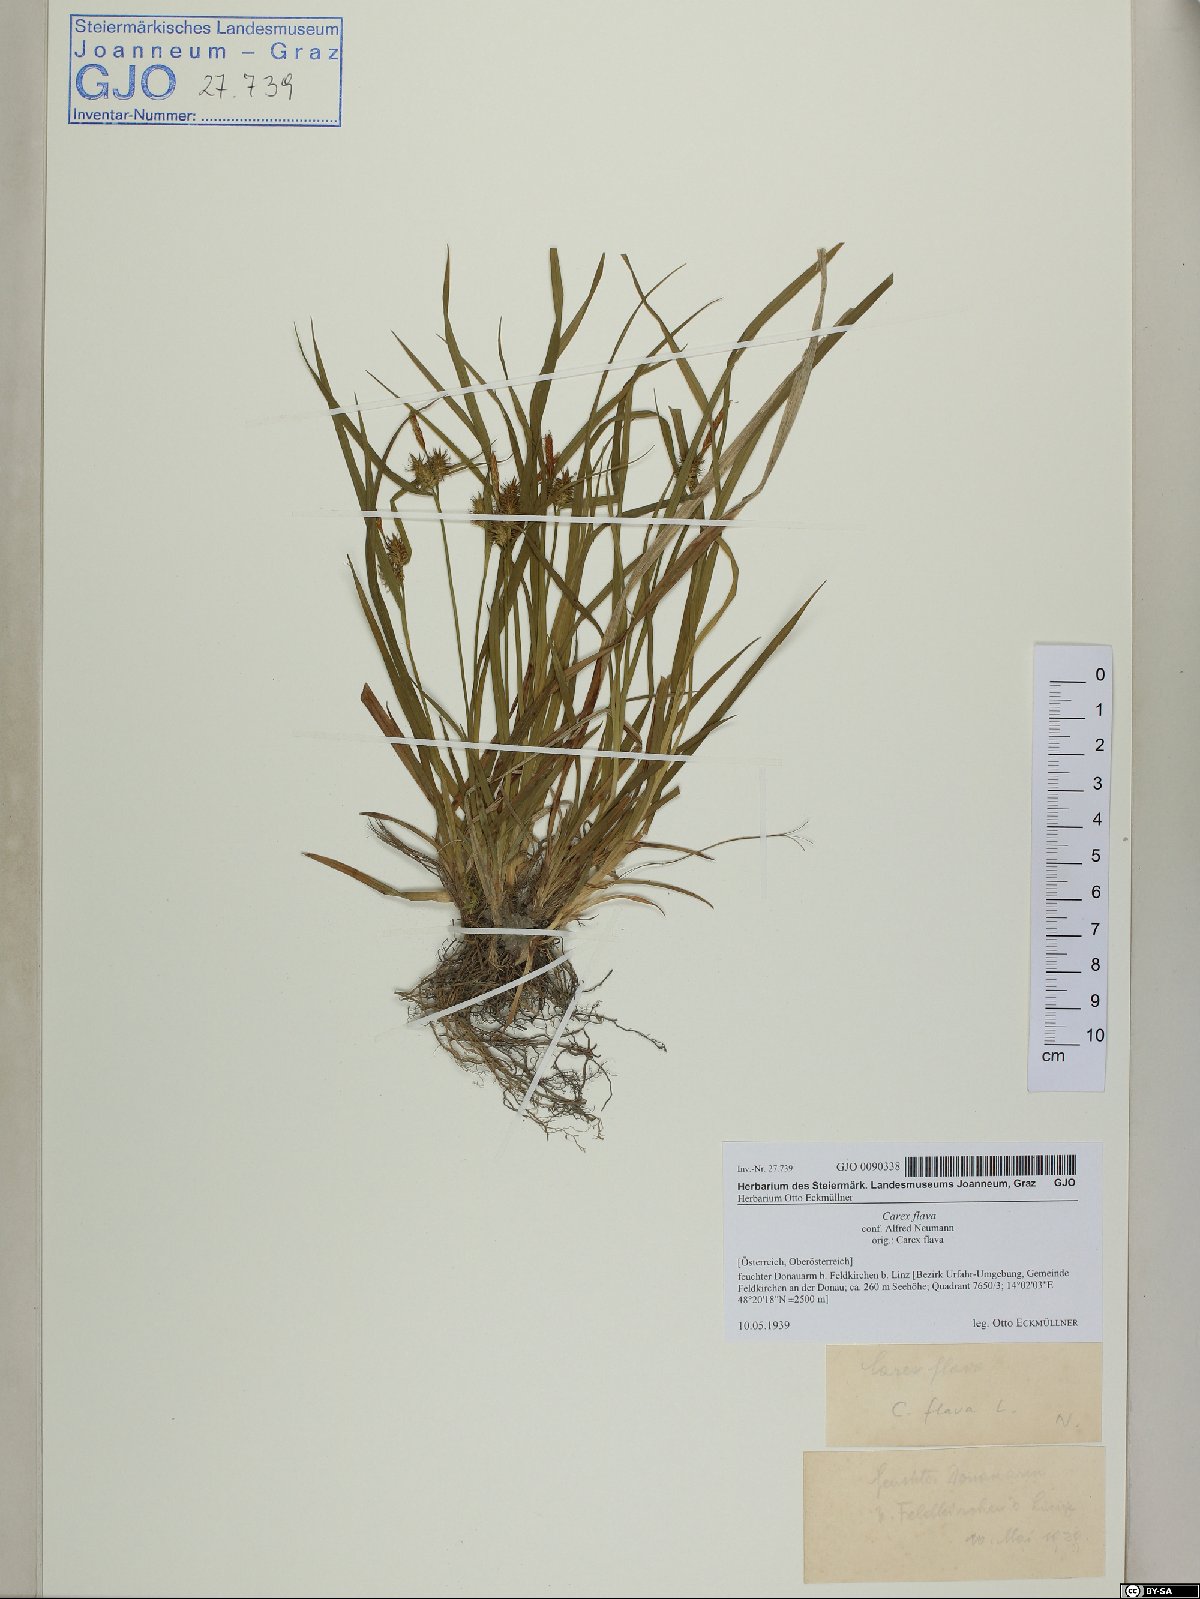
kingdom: Plantae
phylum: Tracheophyta
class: Liliopsida
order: Poales
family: Cyperaceae
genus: Carex
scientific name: Carex flava
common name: Large yellow-sedge
